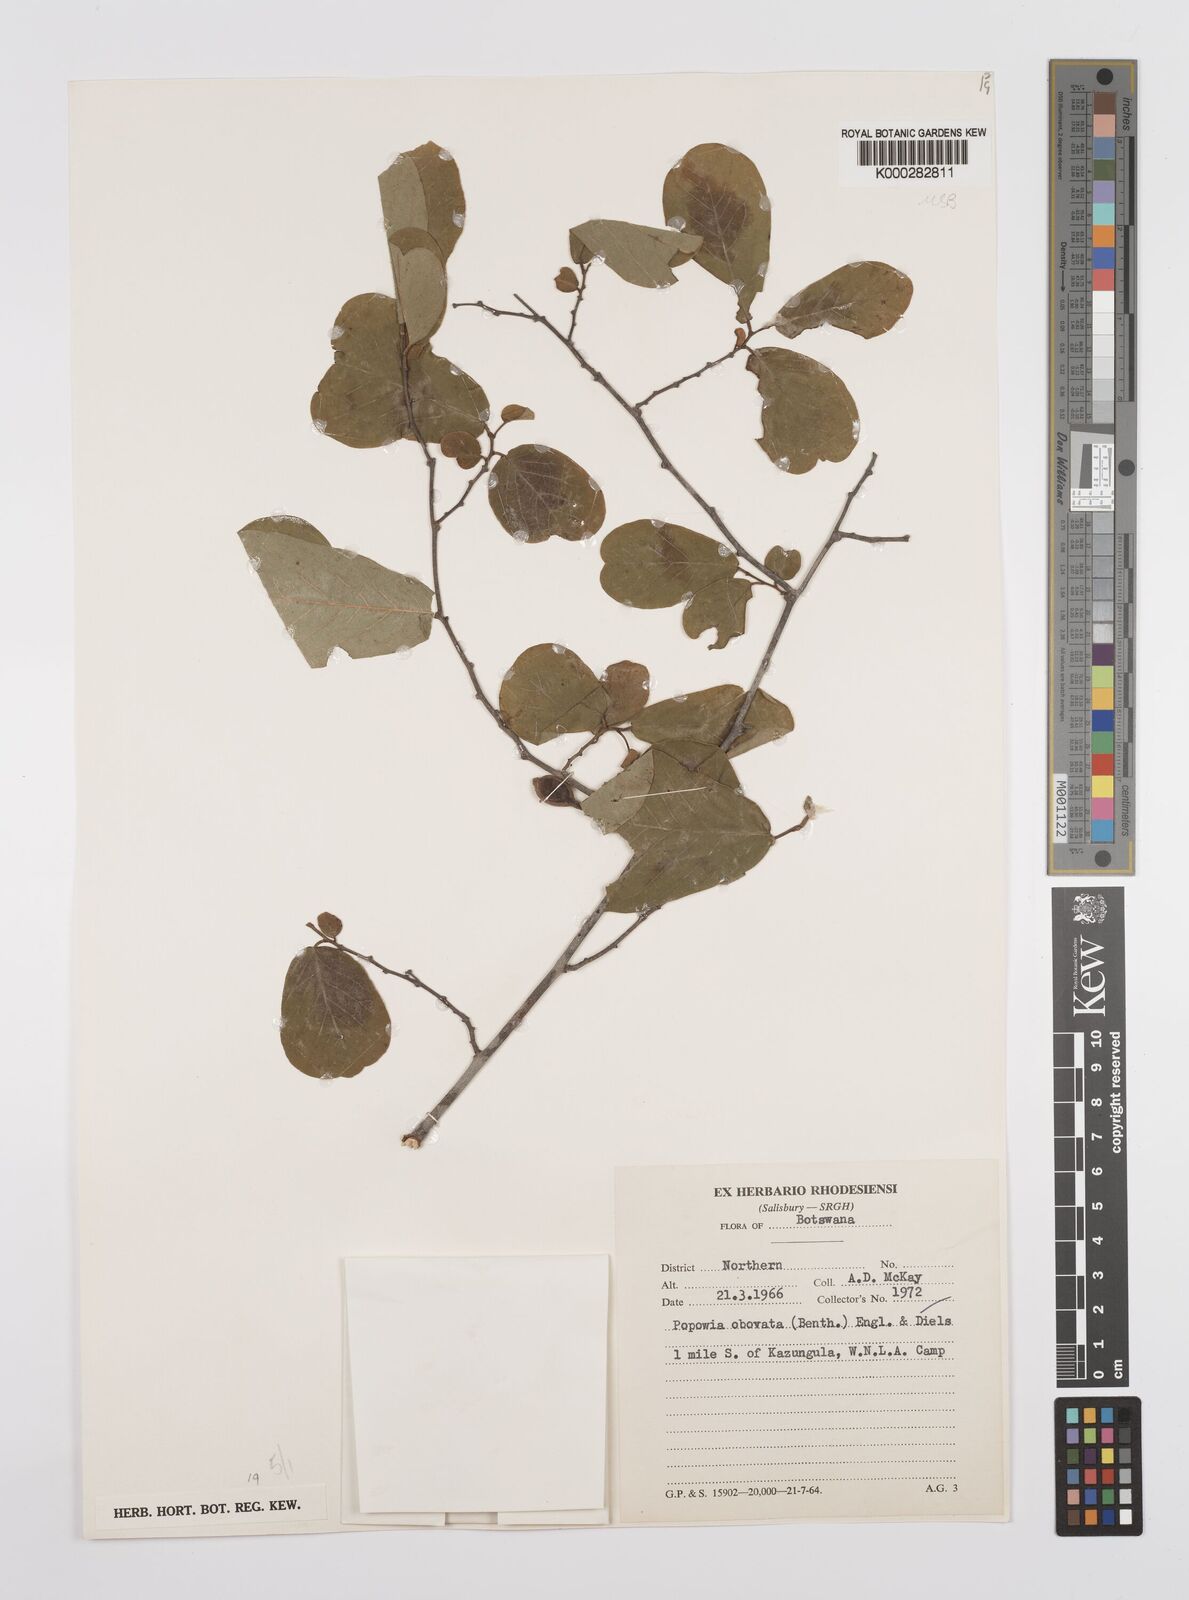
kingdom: Plantae
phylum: Tracheophyta
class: Magnoliopsida
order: Magnoliales
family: Annonaceae
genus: Friesodielsia
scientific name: Friesodielsia obovata
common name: Monkey fingers
